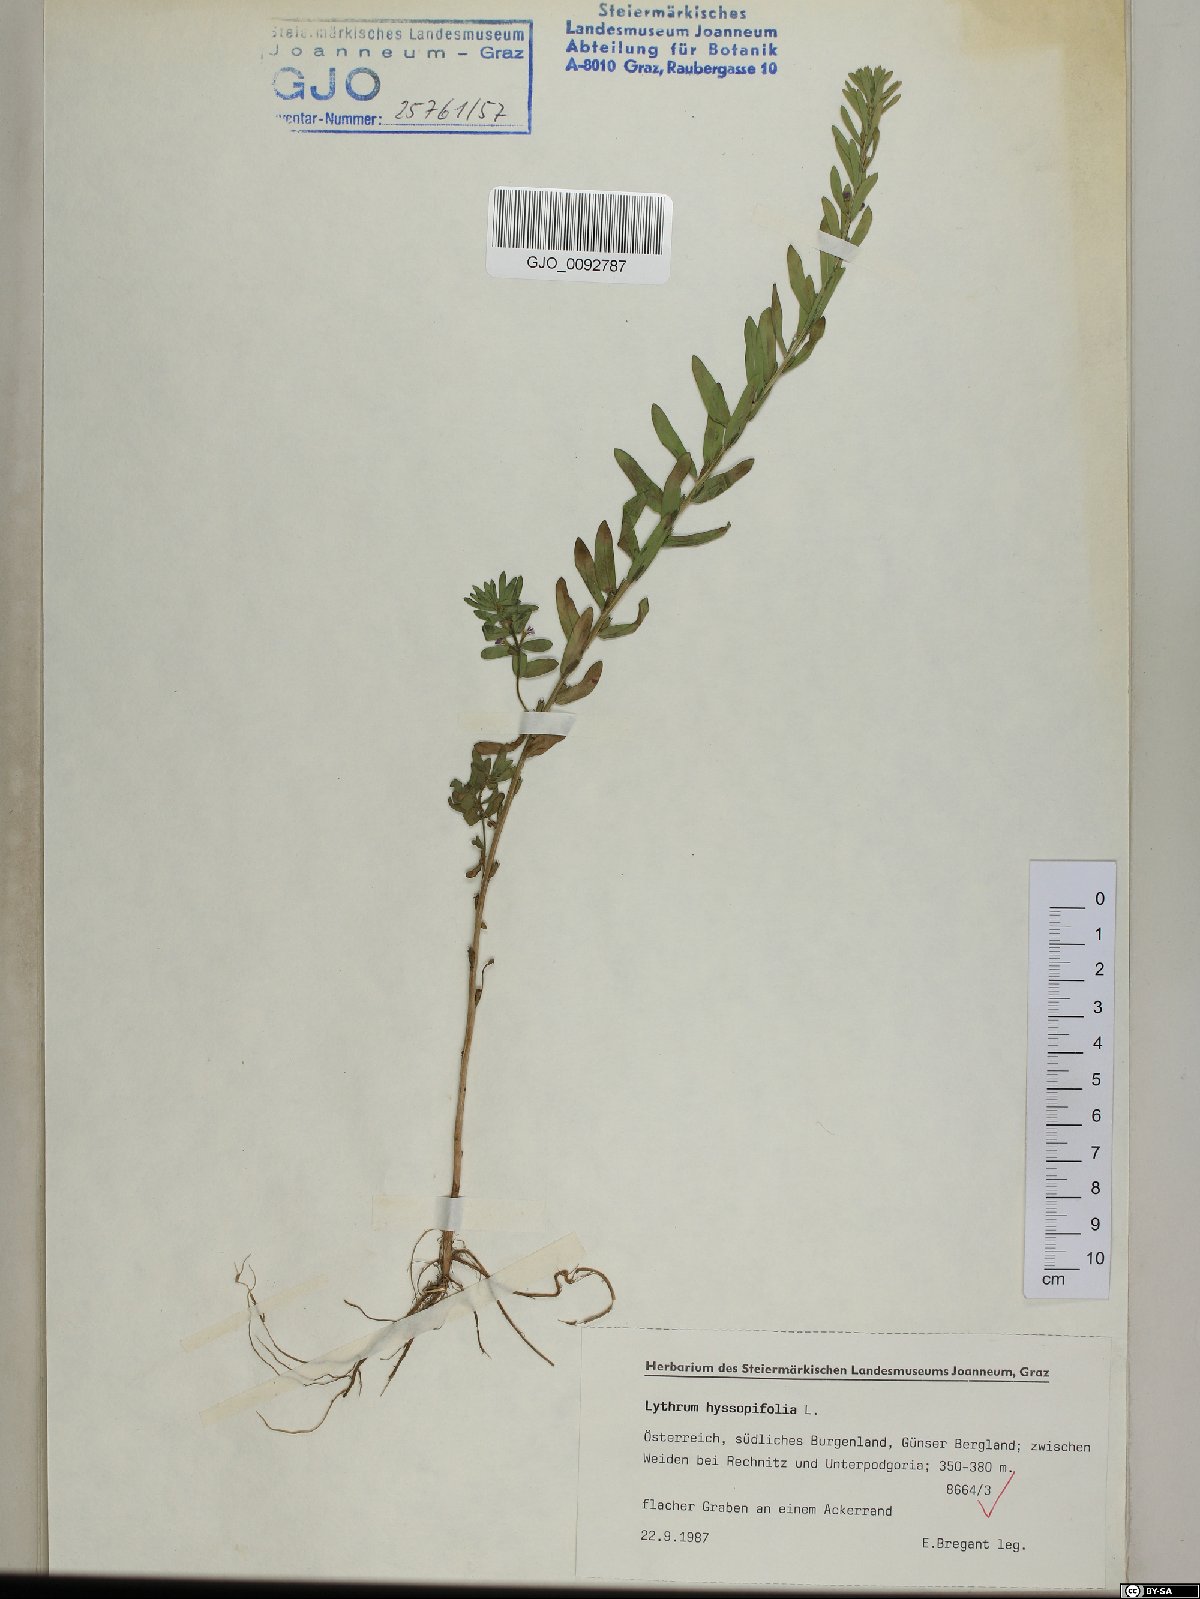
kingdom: Plantae
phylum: Tracheophyta
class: Magnoliopsida
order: Myrtales
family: Lythraceae
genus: Lythrum
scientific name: Lythrum hyssopifolia
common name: Grass-poly
